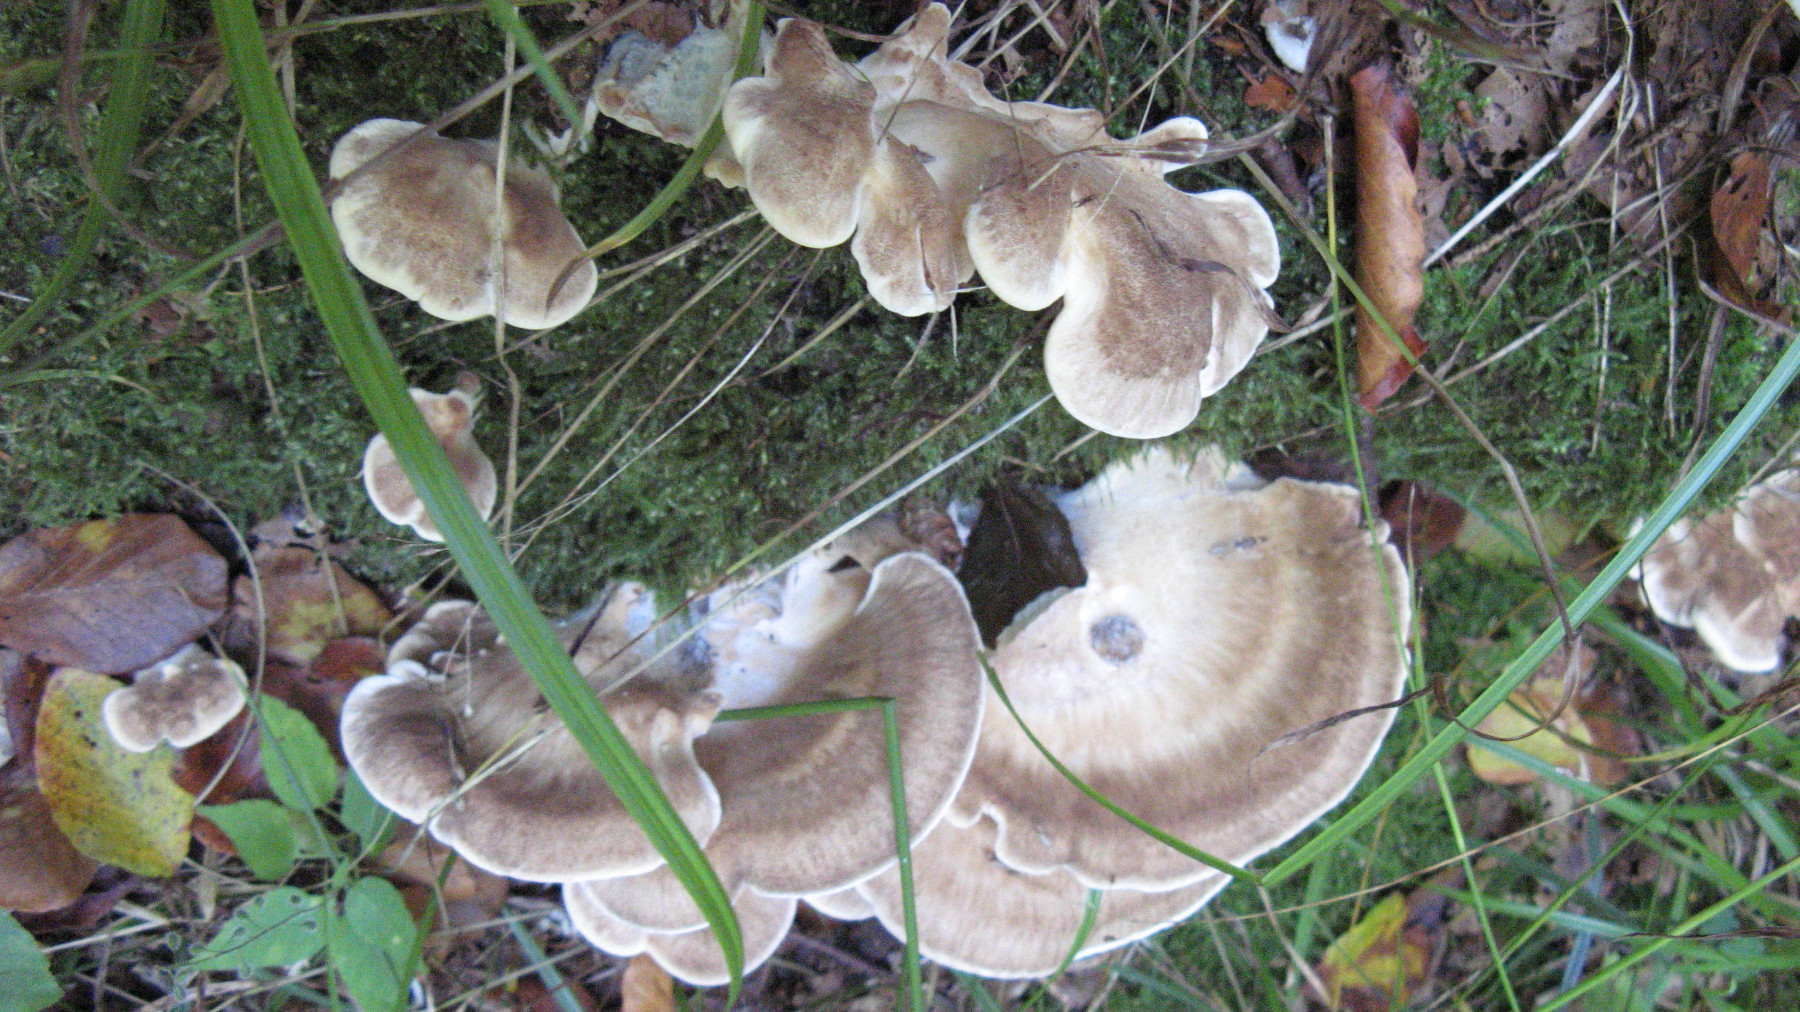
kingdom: Fungi
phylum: Basidiomycota
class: Agaricomycetes
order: Polyporales
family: Meripilaceae
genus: Meripilus
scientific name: Meripilus giganteus
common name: kæmpeporesvamp
